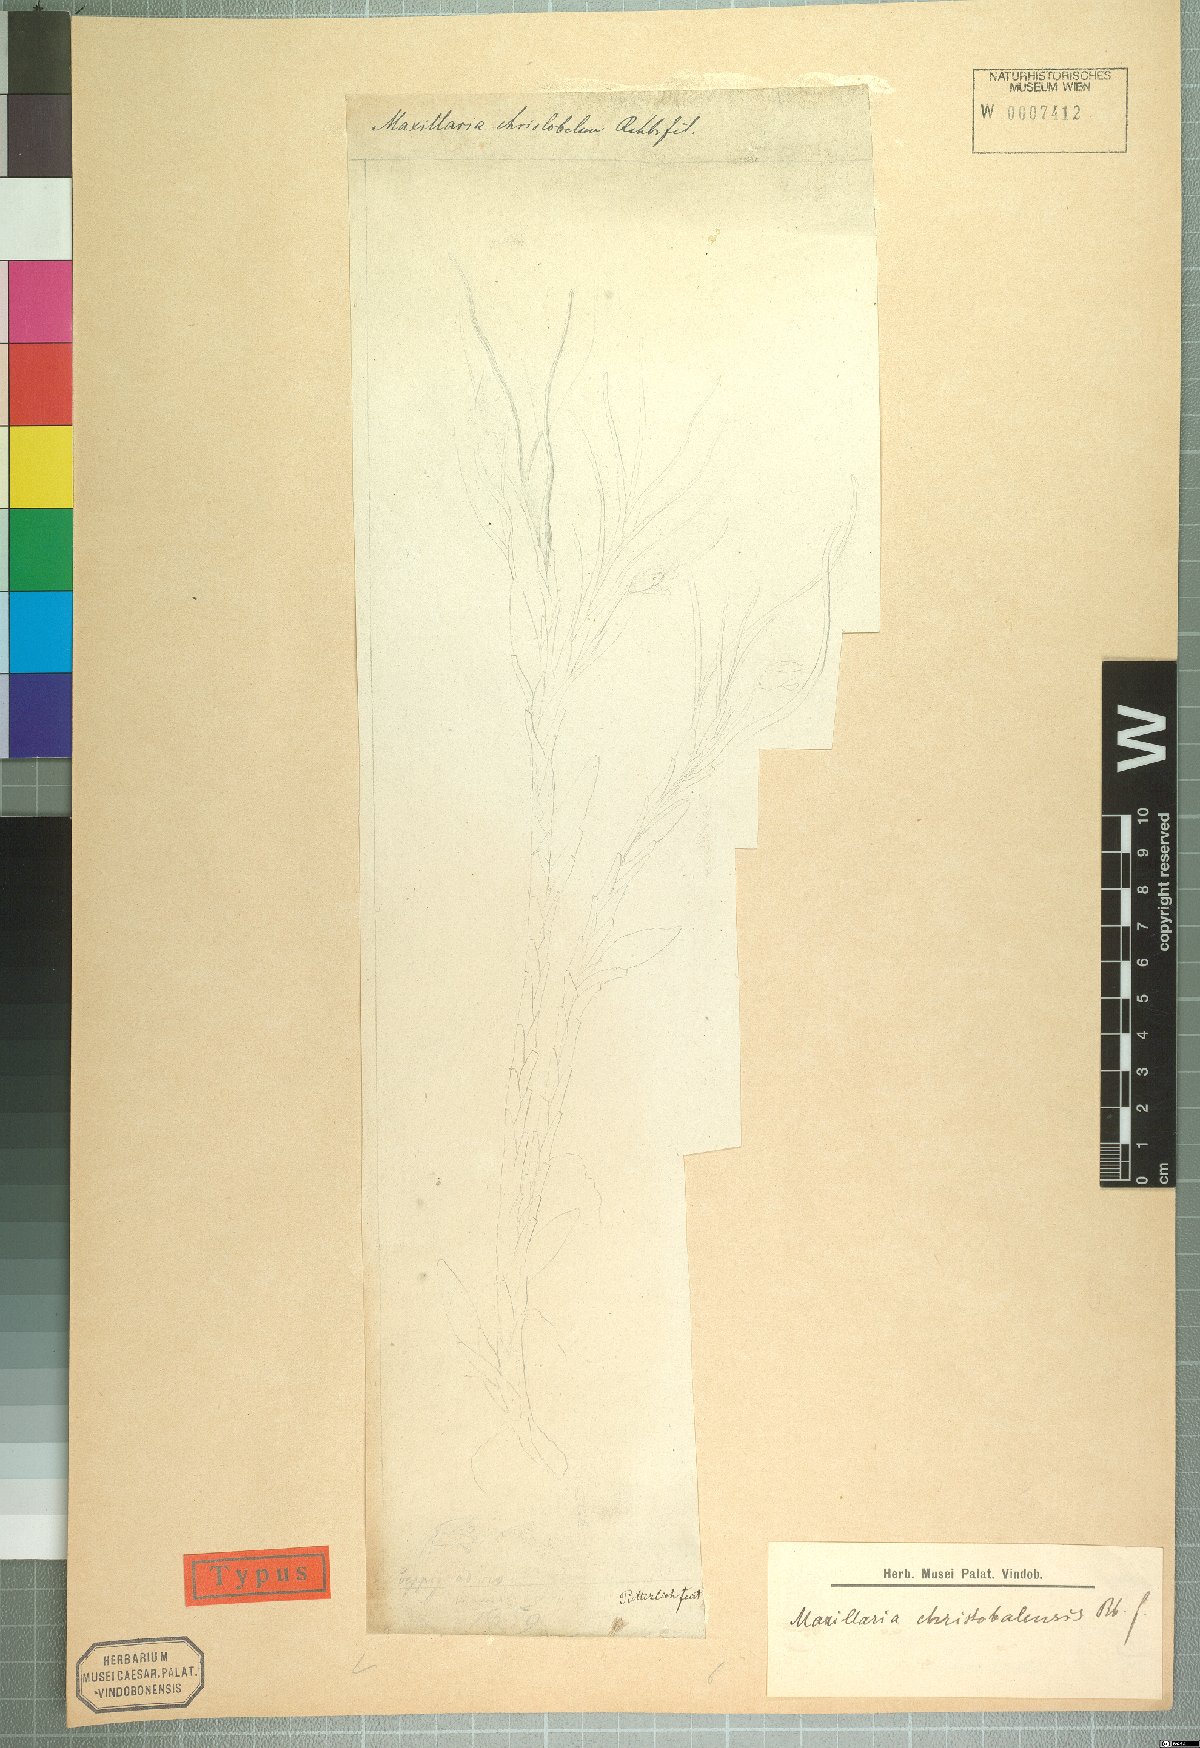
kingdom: Plantae
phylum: Tracheophyta
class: Liliopsida
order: Asparagales
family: Orchidaceae
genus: Maxillaria
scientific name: Maxillaria christobalensis
